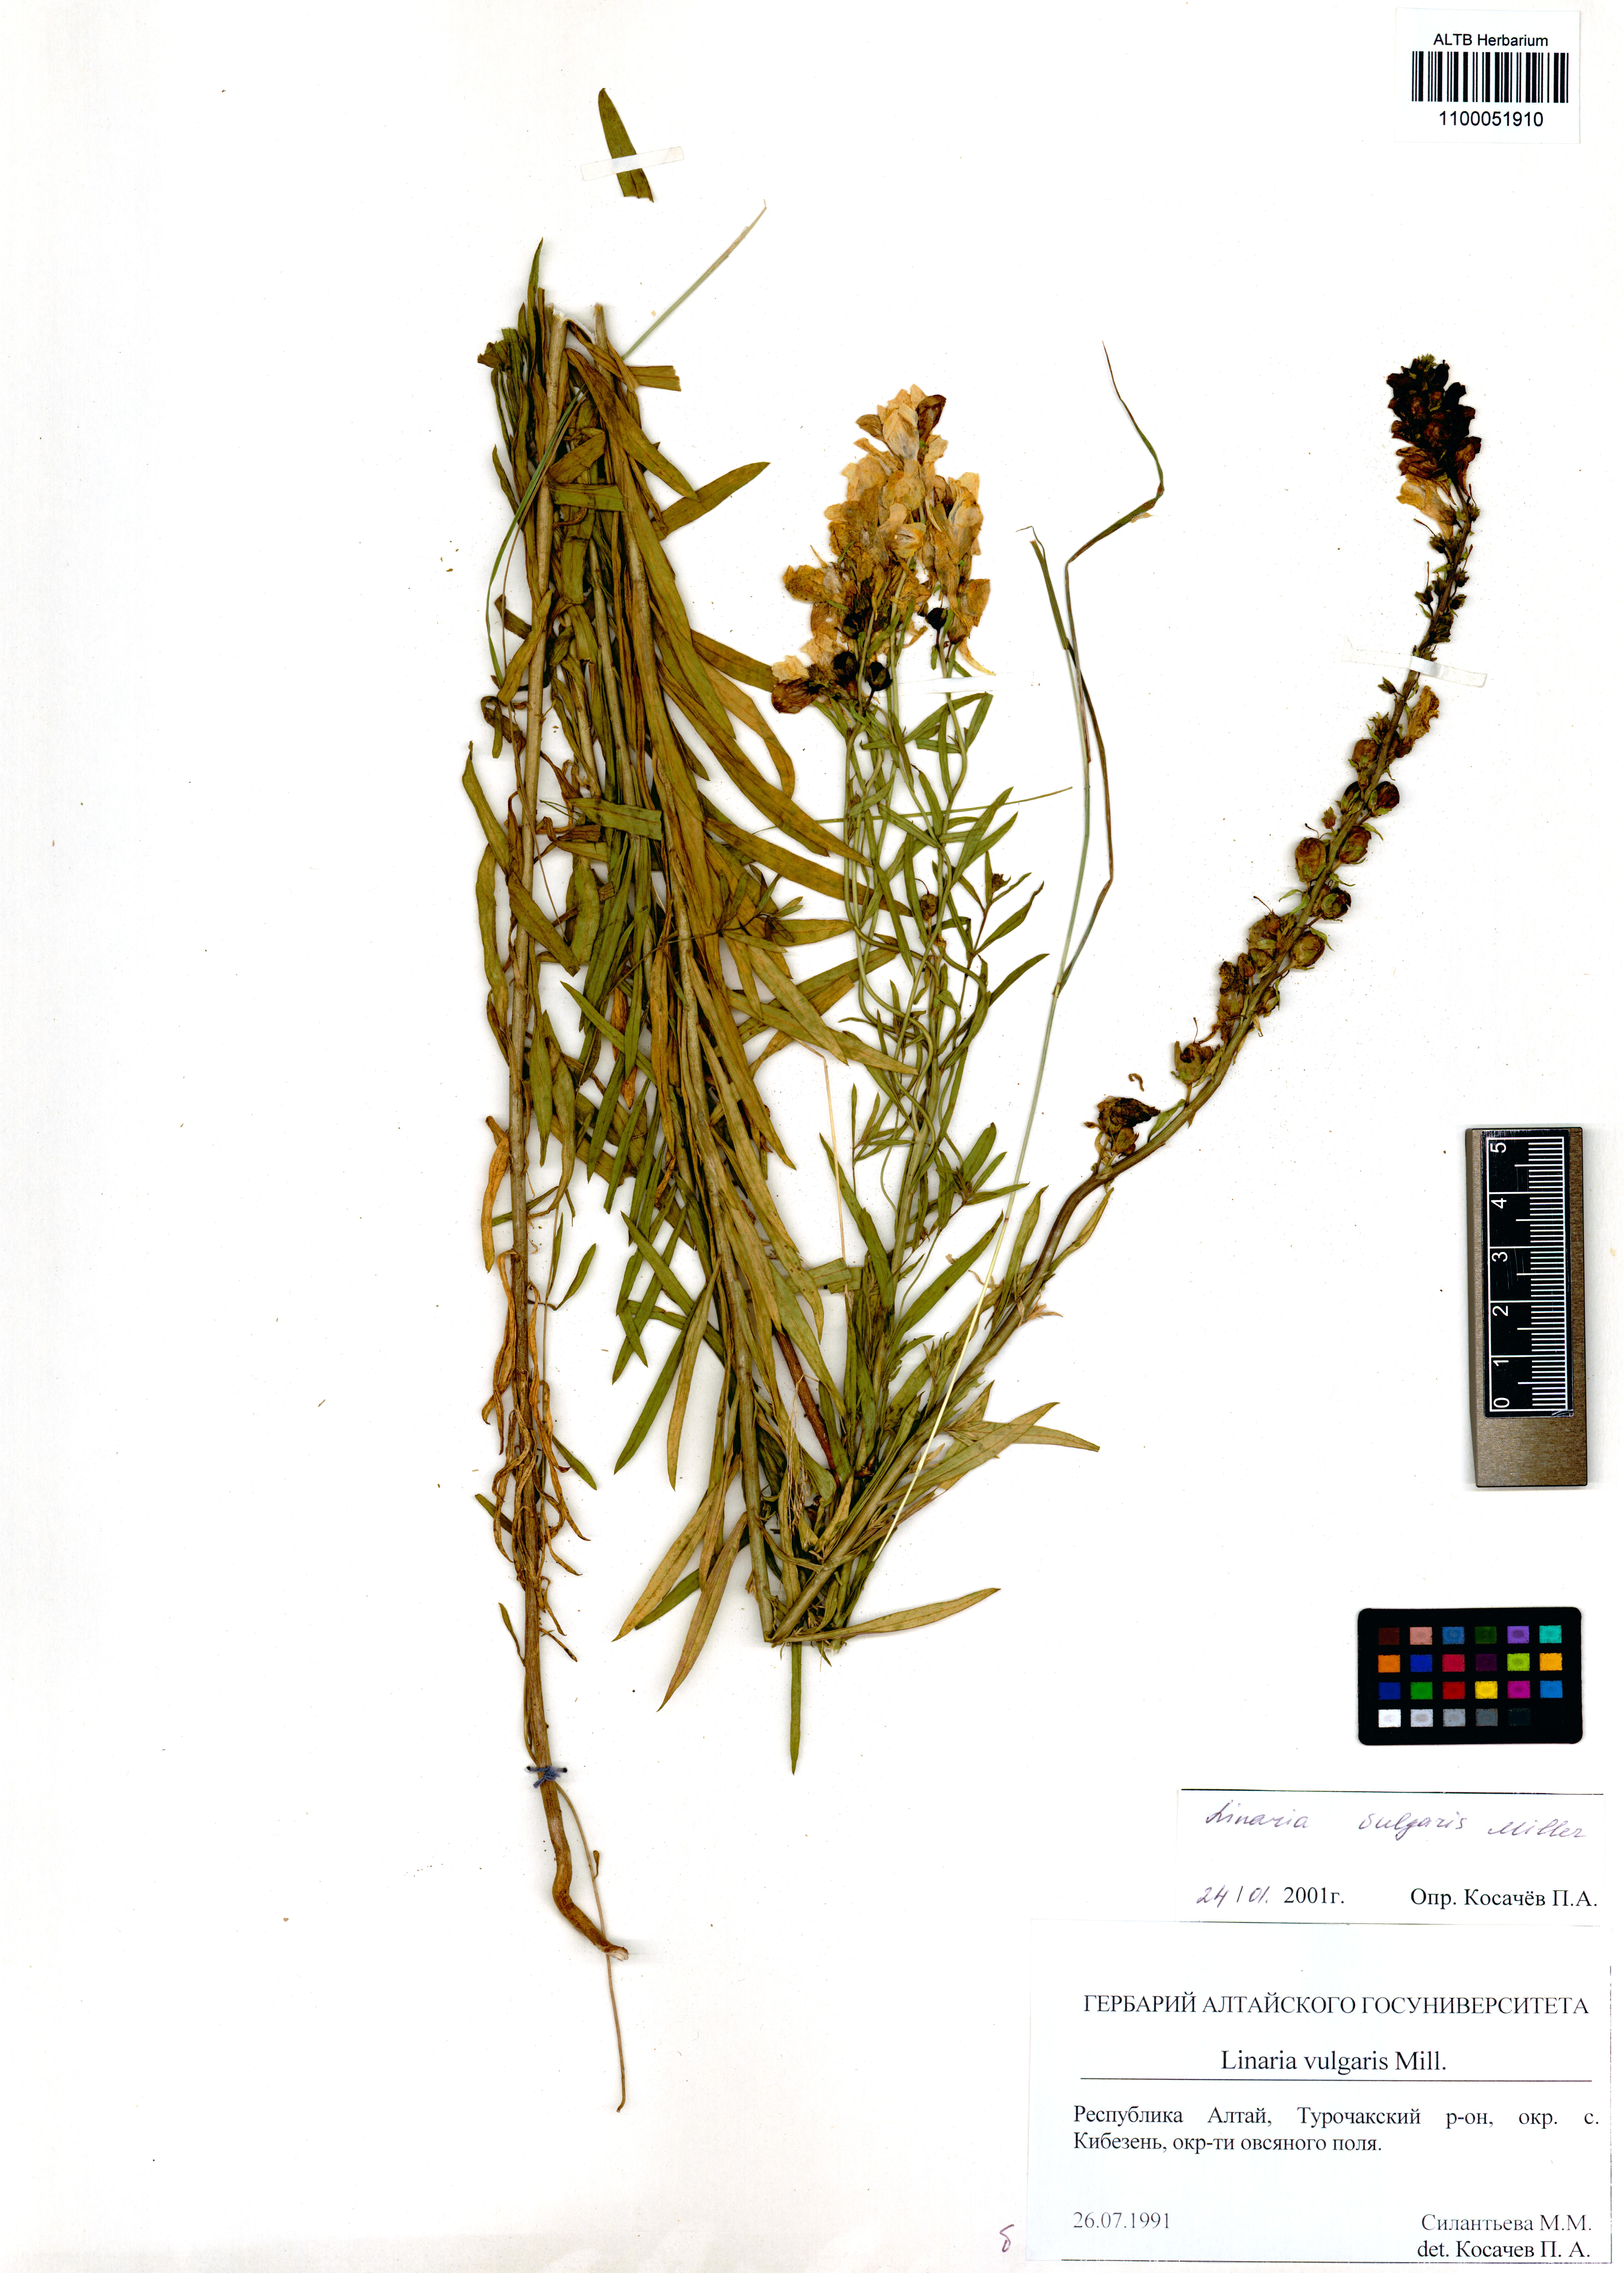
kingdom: Plantae
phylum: Tracheophyta
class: Magnoliopsida
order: Lamiales
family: Plantaginaceae
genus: Linaria
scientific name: Linaria vulgaris
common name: Butter and eggs
